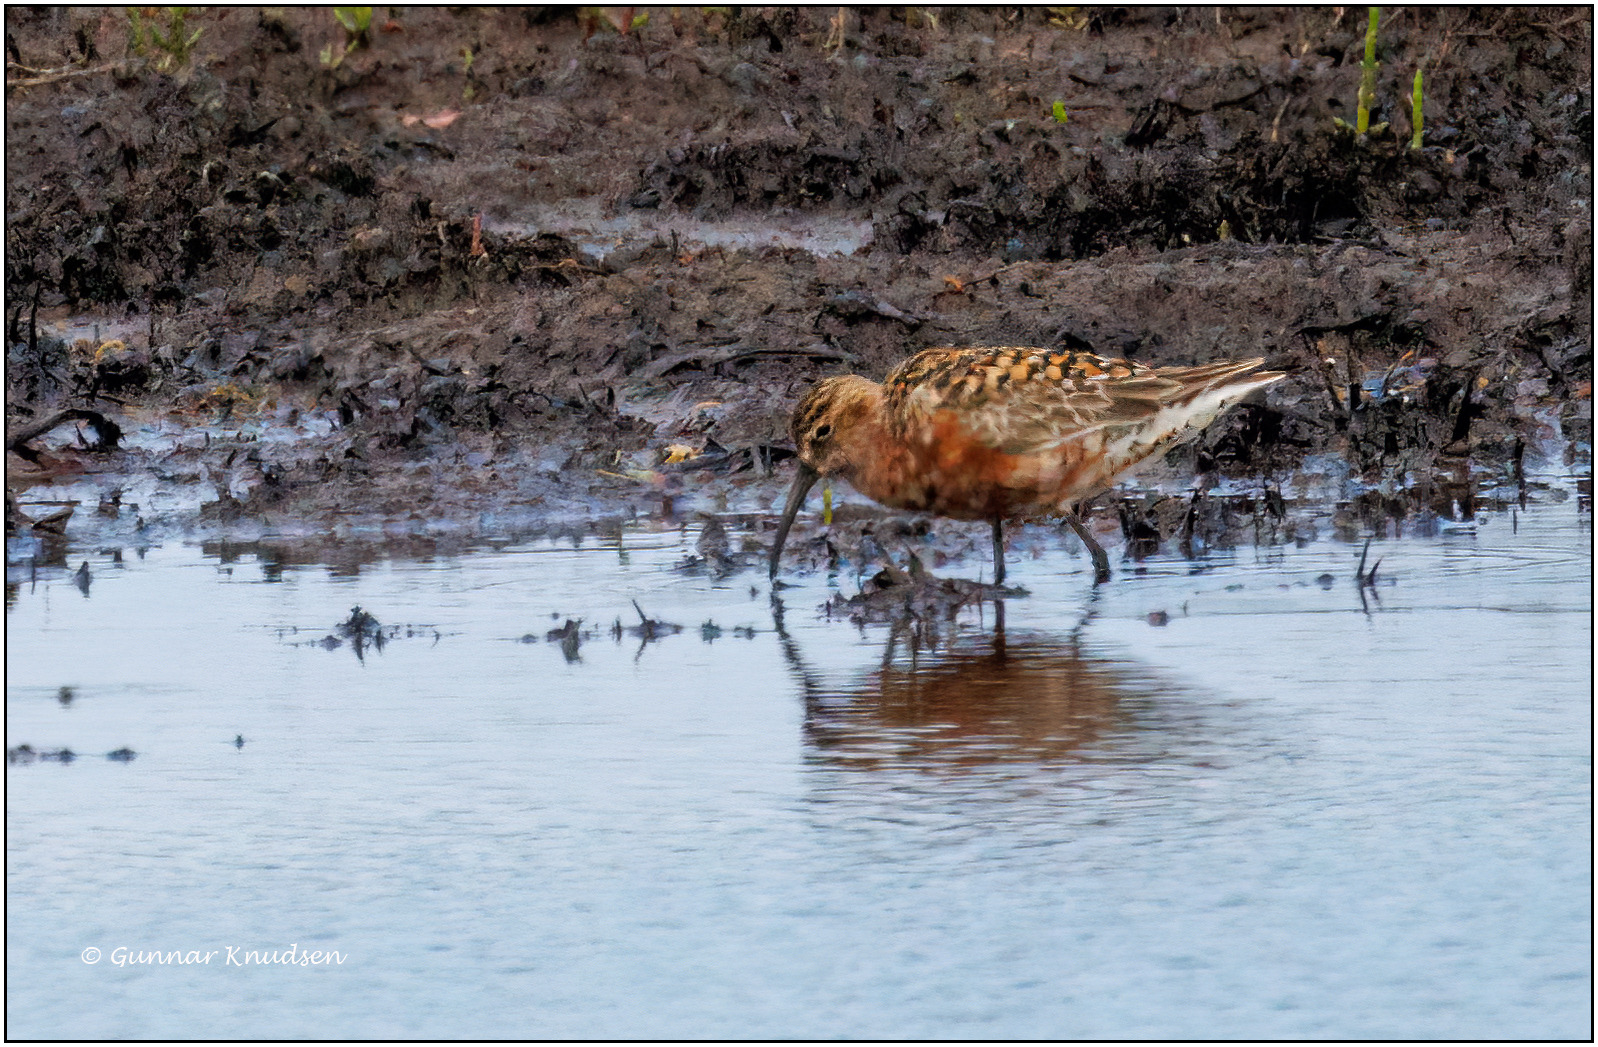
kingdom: Animalia
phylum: Chordata
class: Aves
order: Charadriiformes
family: Scolopacidae
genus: Calidris
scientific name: Calidris ferruginea
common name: Krumnæbbet ryle
